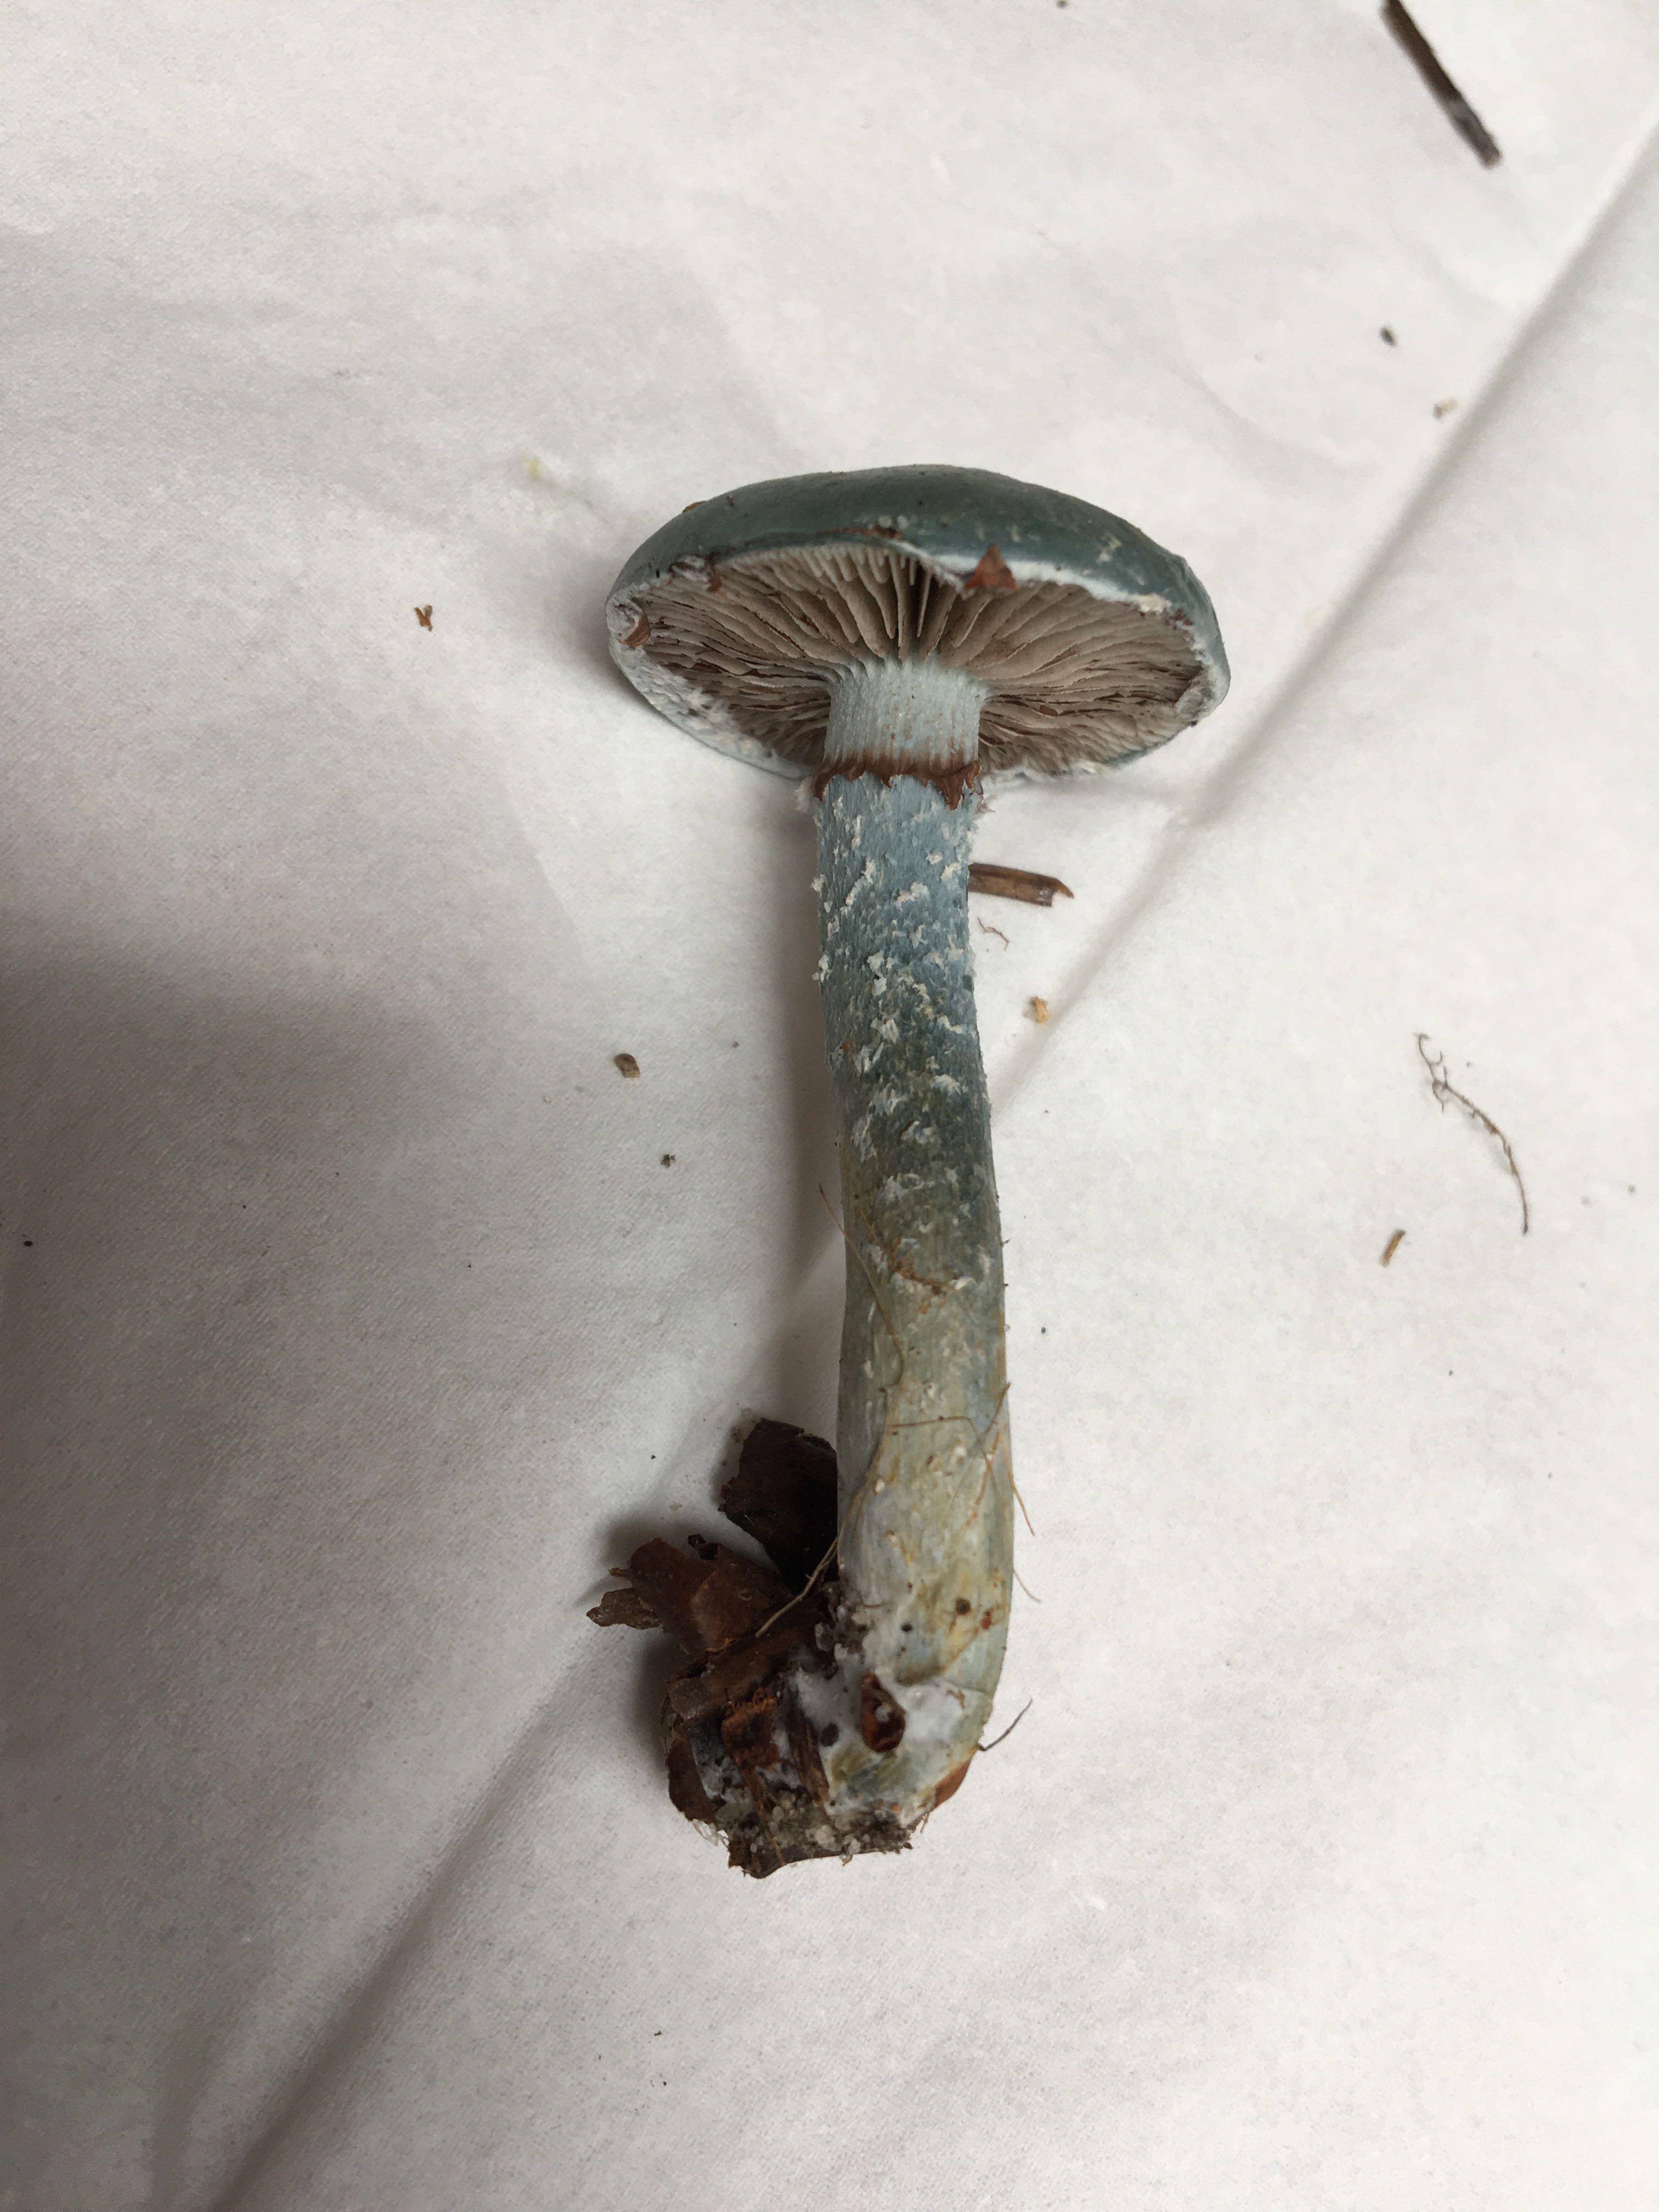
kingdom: Fungi
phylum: Basidiomycota
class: Agaricomycetes
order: Agaricales
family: Strophariaceae
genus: Stropharia
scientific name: Stropharia cyanea
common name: blågrøn bredblad
